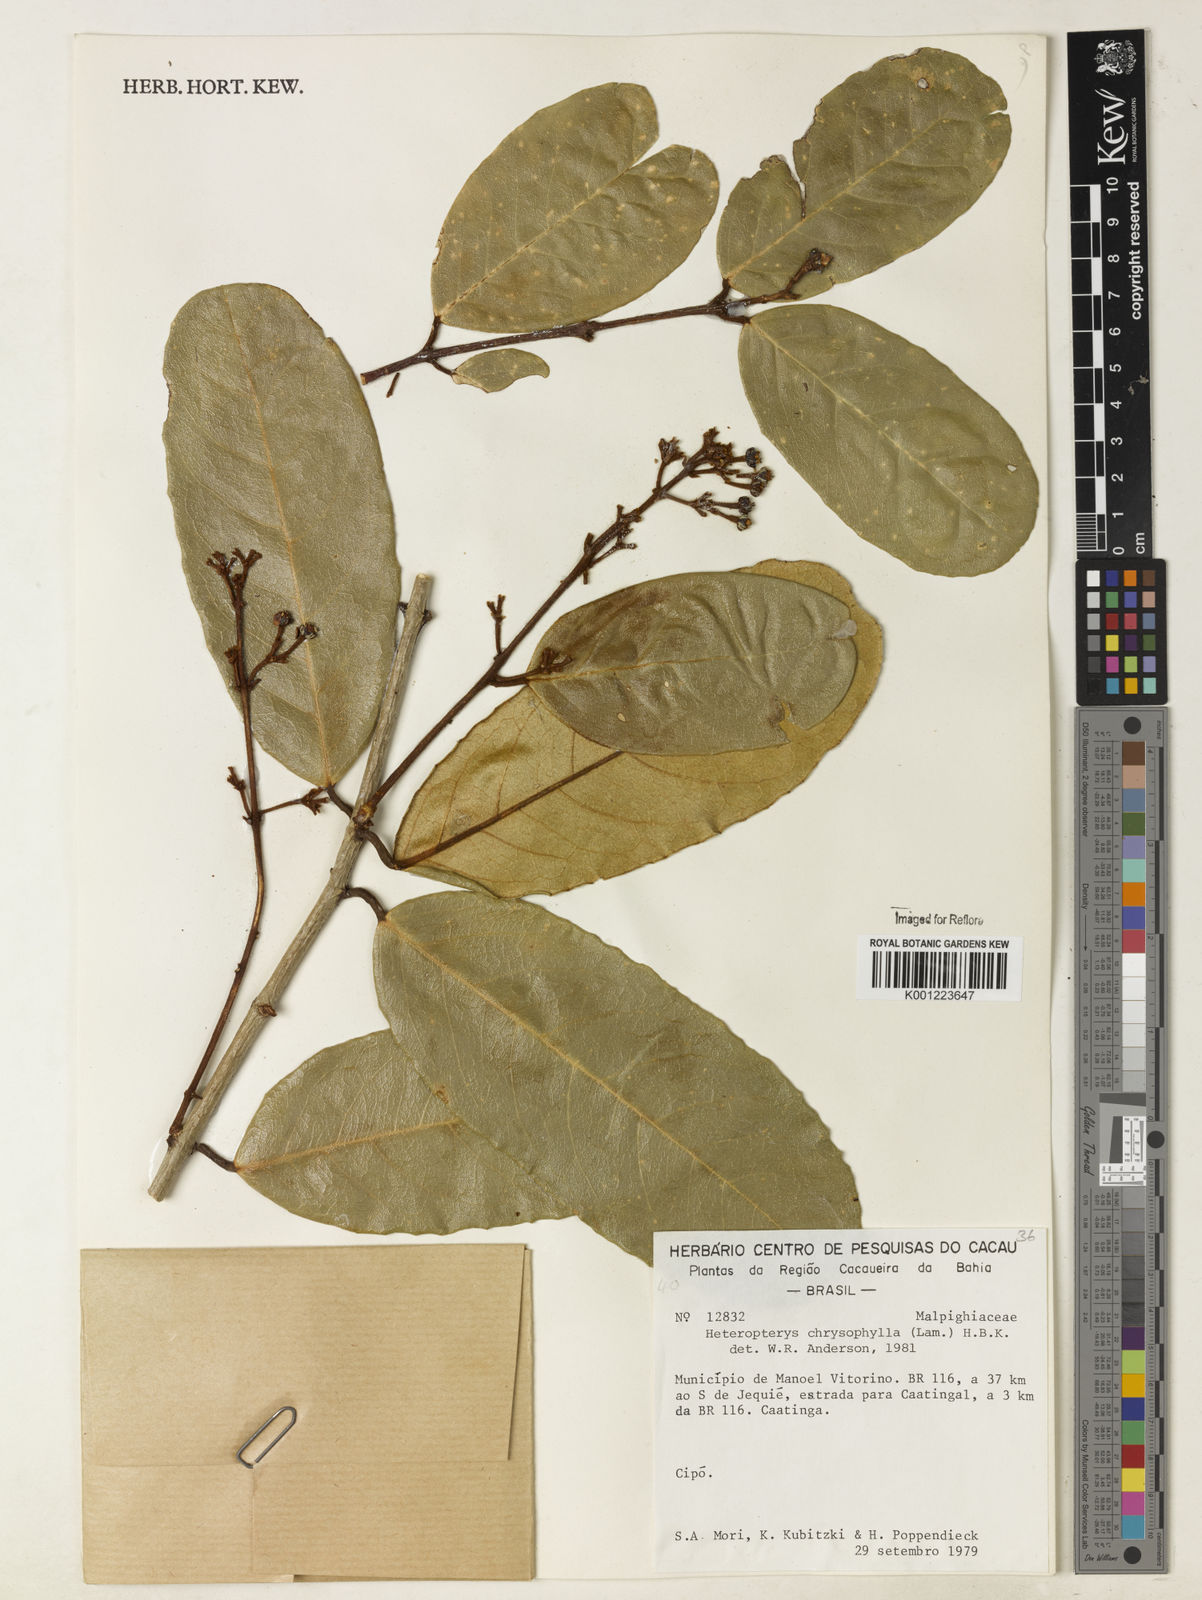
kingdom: Plantae
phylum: Tracheophyta
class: Magnoliopsida
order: Malpighiales
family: Malpighiaceae
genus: Heteropterys
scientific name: Heteropterys chrysophylla
